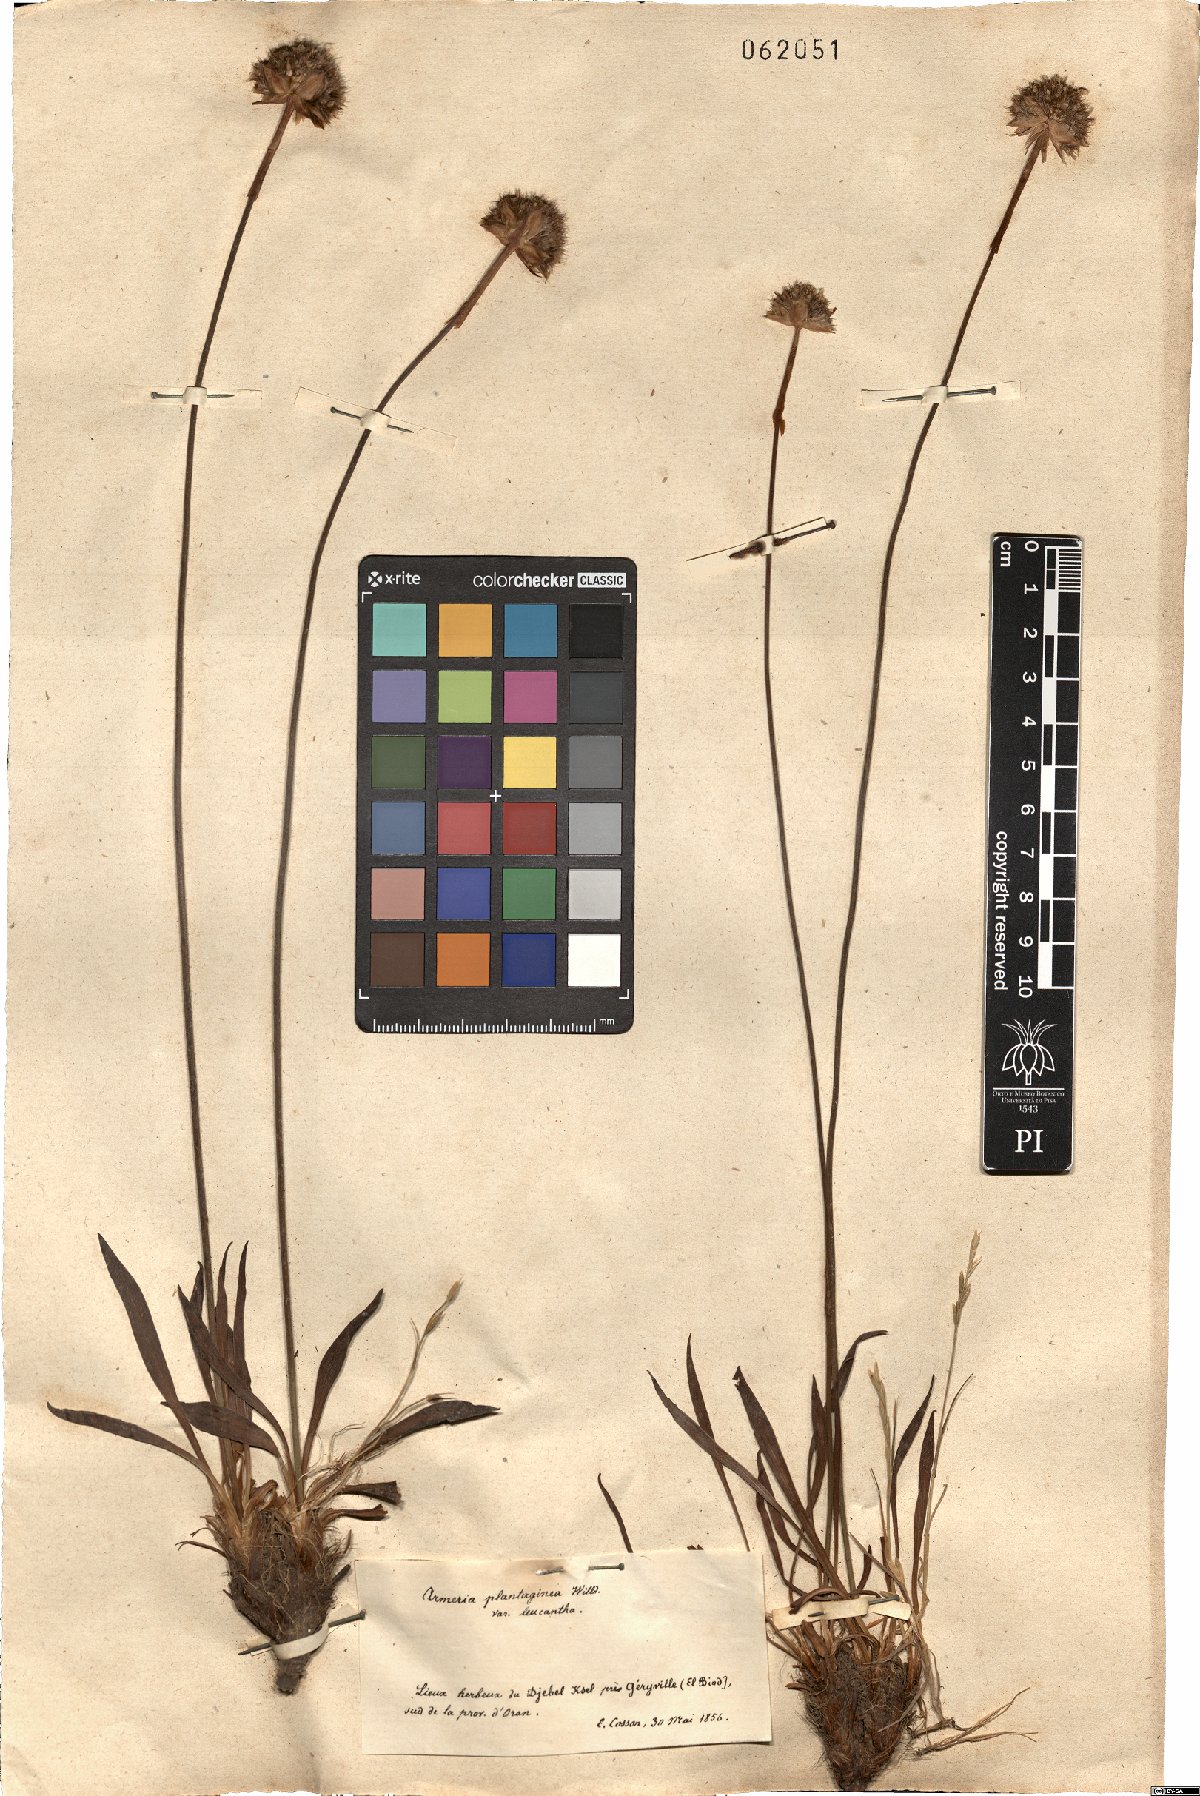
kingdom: Plantae
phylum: Tracheophyta
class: Magnoliopsida
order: Caryophyllales
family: Plumbaginaceae
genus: Armeria
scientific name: Armeria alliacea
